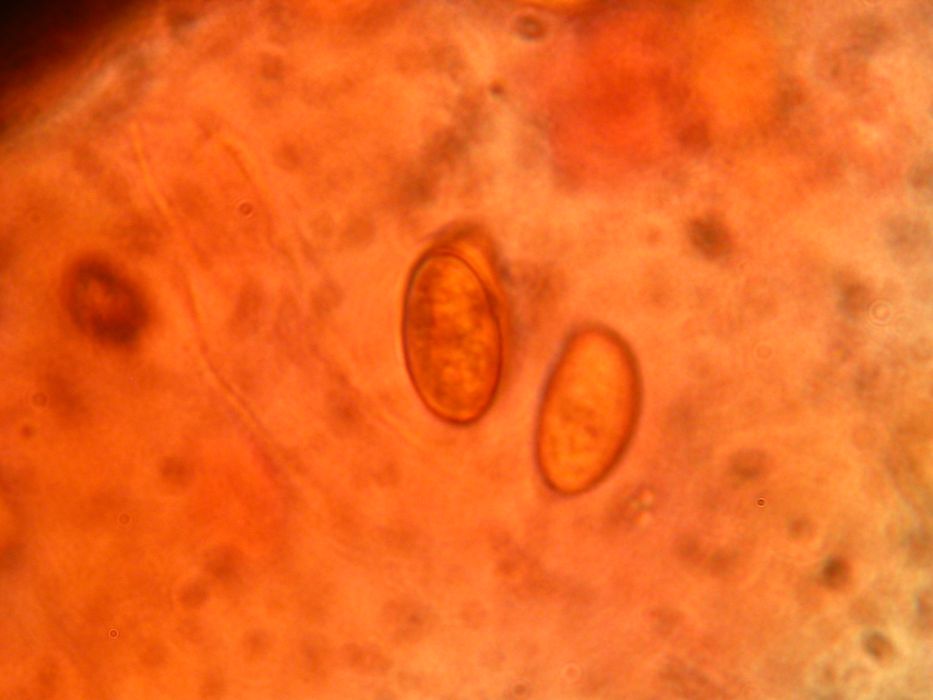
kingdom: Fungi
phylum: Basidiomycota
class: Agaricomycetes
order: Agaricales
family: Hymenogastraceae
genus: Galerina
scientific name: Galerina pumila
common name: honninggul hjelmhat
